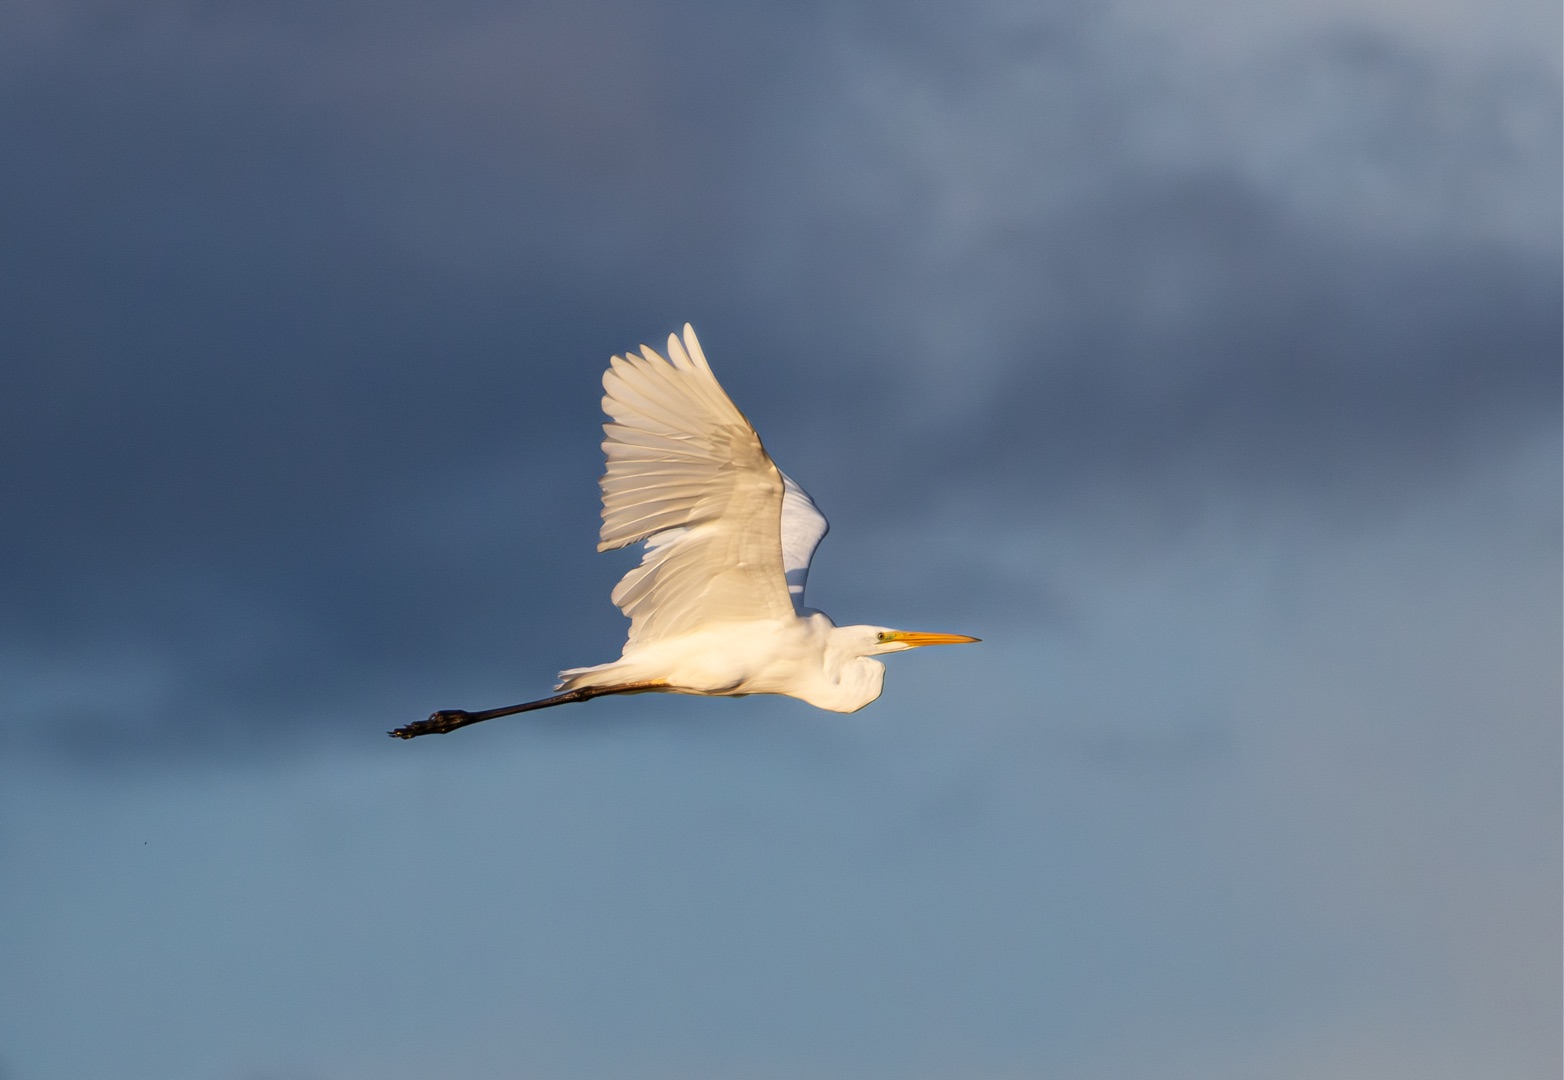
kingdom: Animalia
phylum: Chordata
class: Aves
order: Pelecaniformes
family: Ardeidae
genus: Ardea
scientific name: Ardea alba
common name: Sølvhejre
